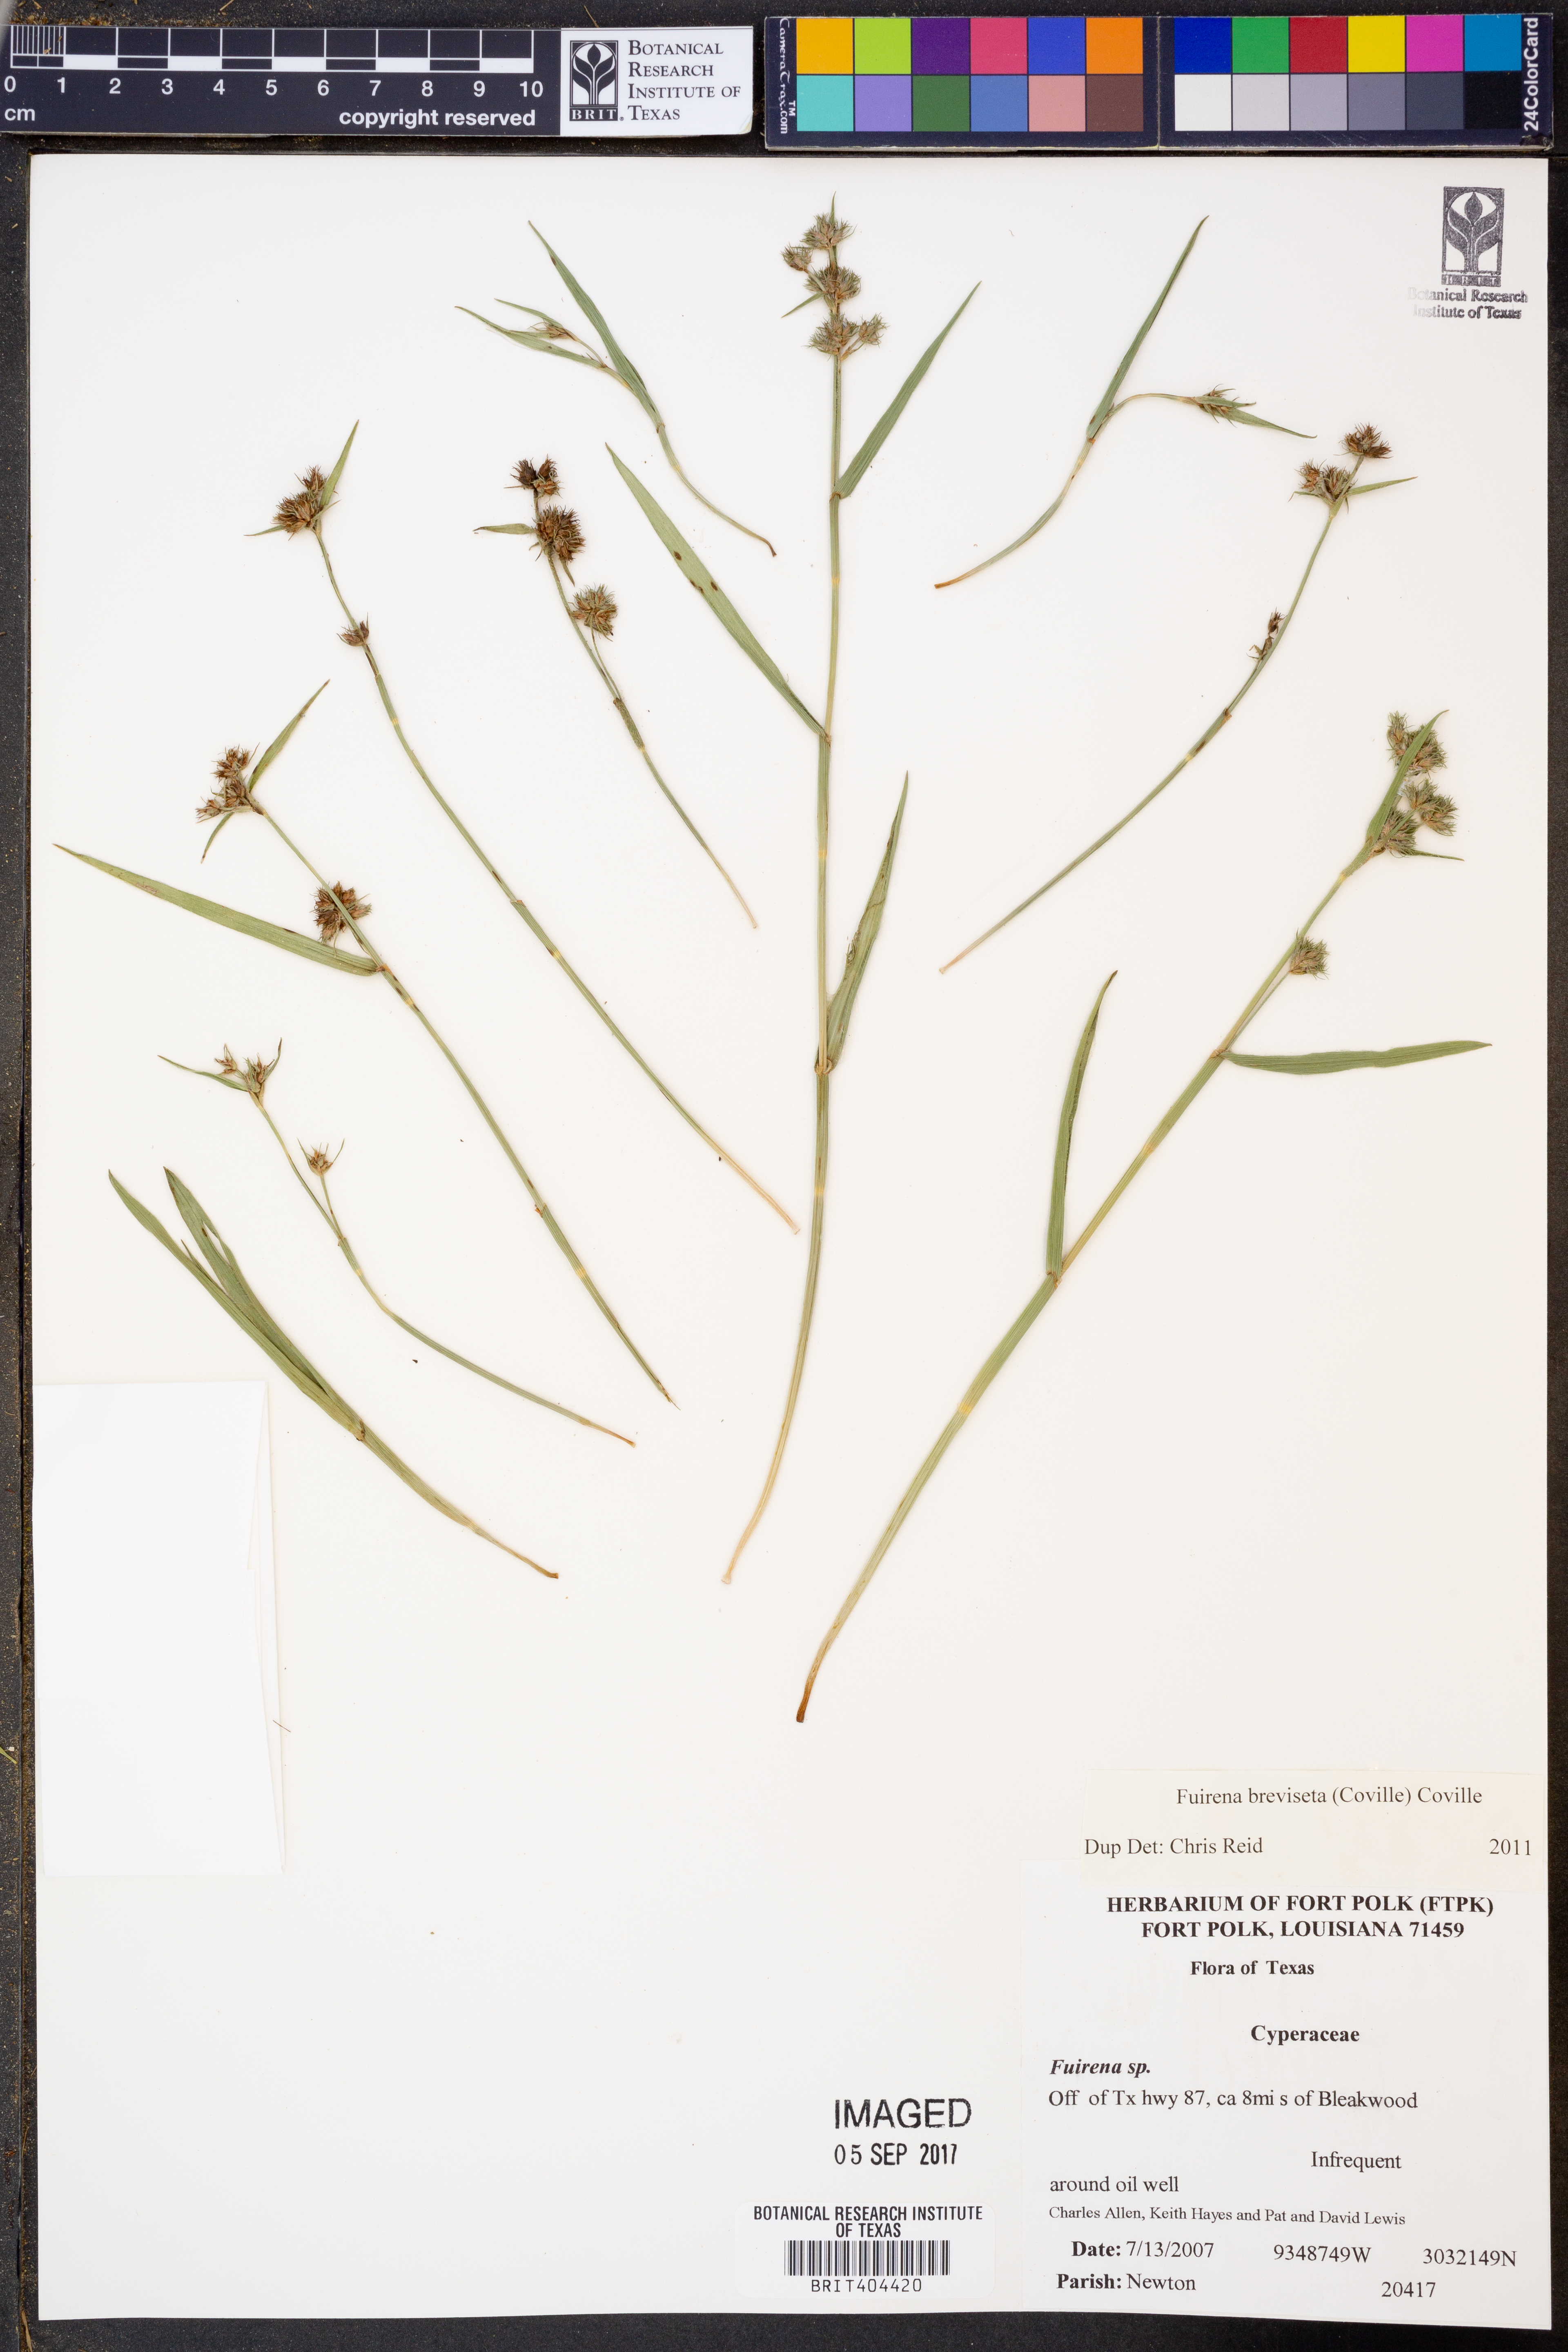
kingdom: Plantae
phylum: Tracheophyta
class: Liliopsida
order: Poales
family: Cyperaceae
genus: Fuirena
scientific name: Fuirena breviseta
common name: Saltmarsh umbrella sedge
